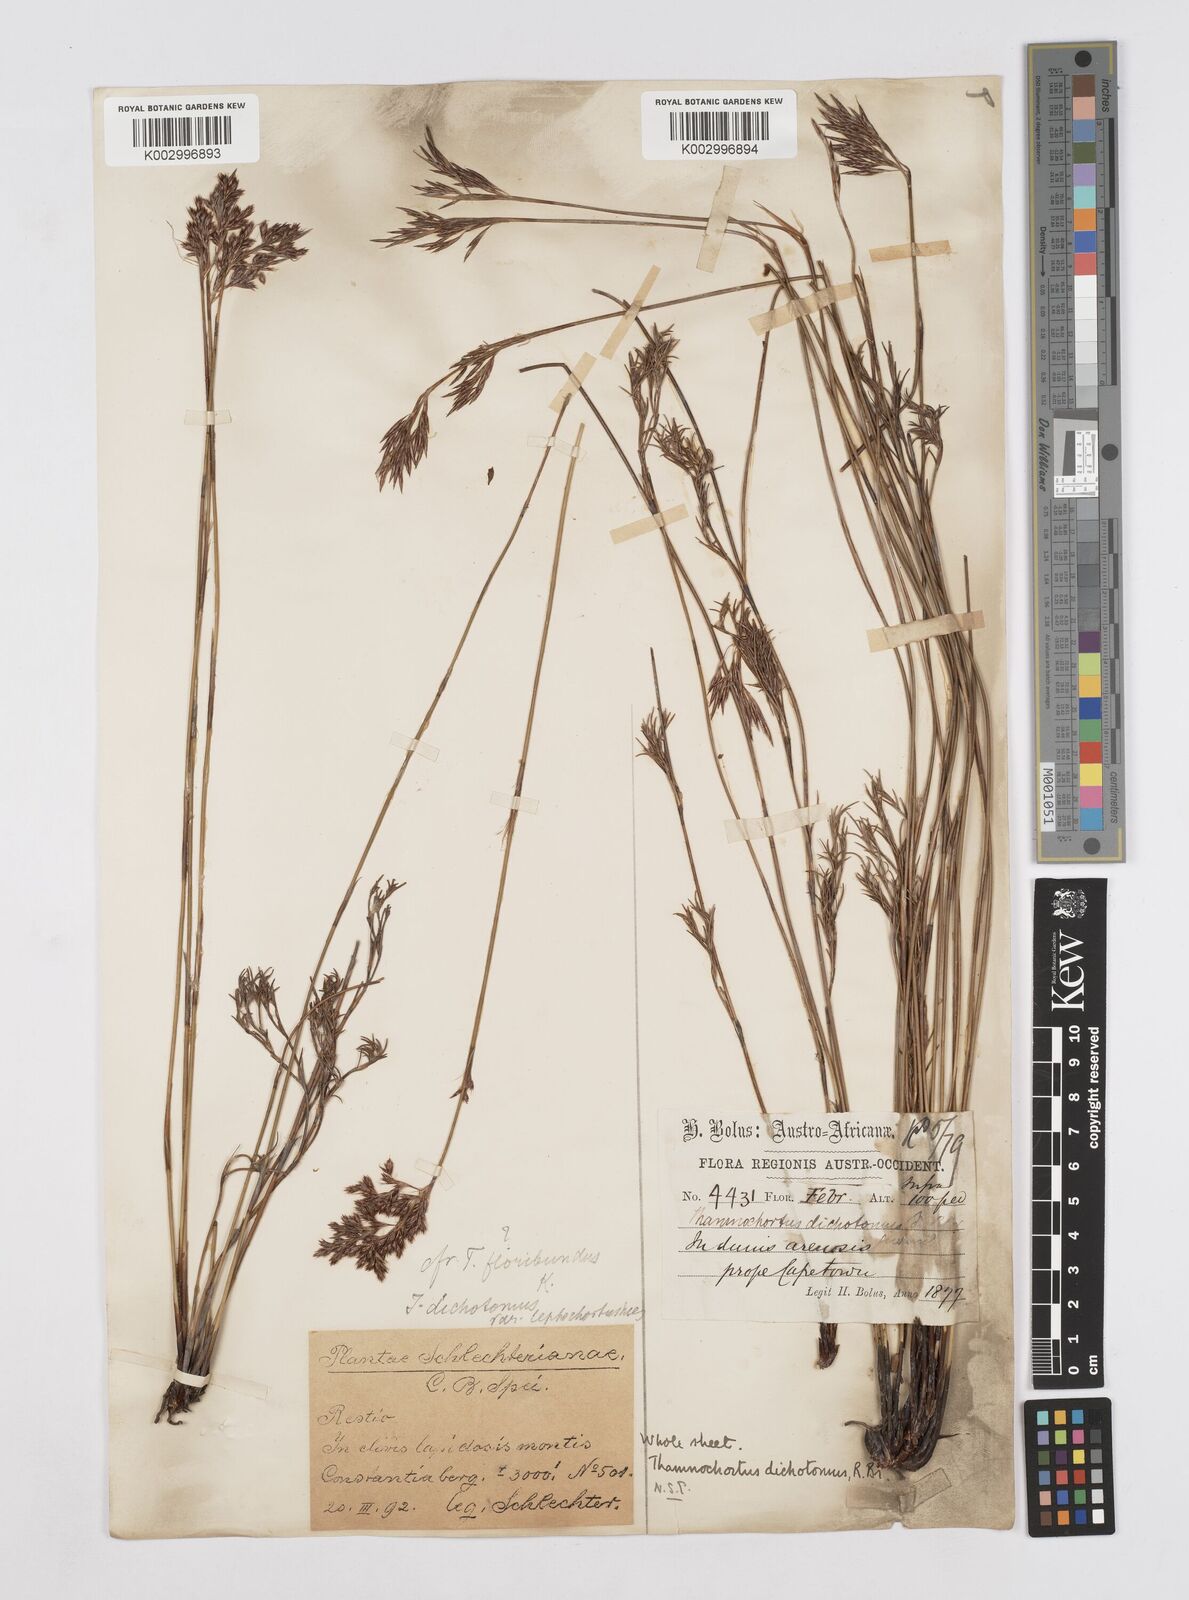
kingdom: Plantae
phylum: Tracheophyta
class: Liliopsida
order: Poales
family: Restionaceae
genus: Thamnochortus
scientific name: Thamnochortus lucens
